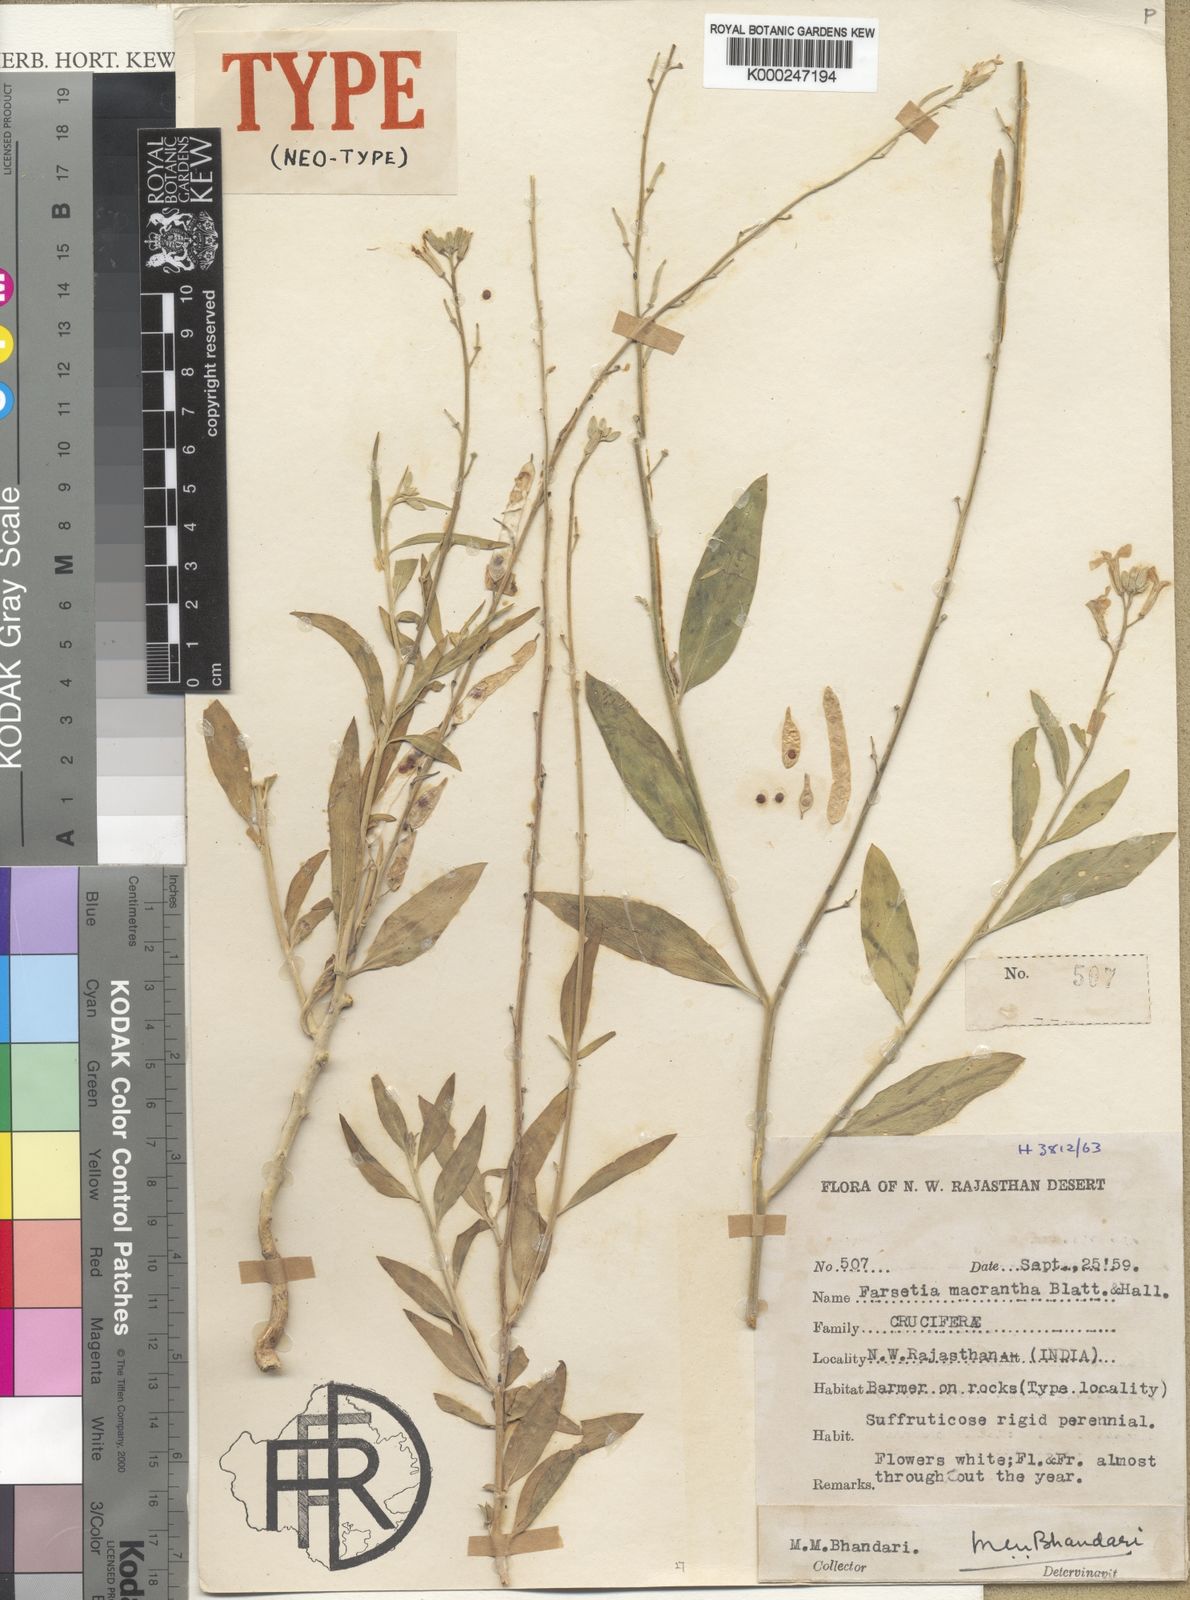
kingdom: Plantae
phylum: Tracheophyta
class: Magnoliopsida
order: Brassicales
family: Brassicaceae
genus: Farsetia
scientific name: Farsetia macrantha
